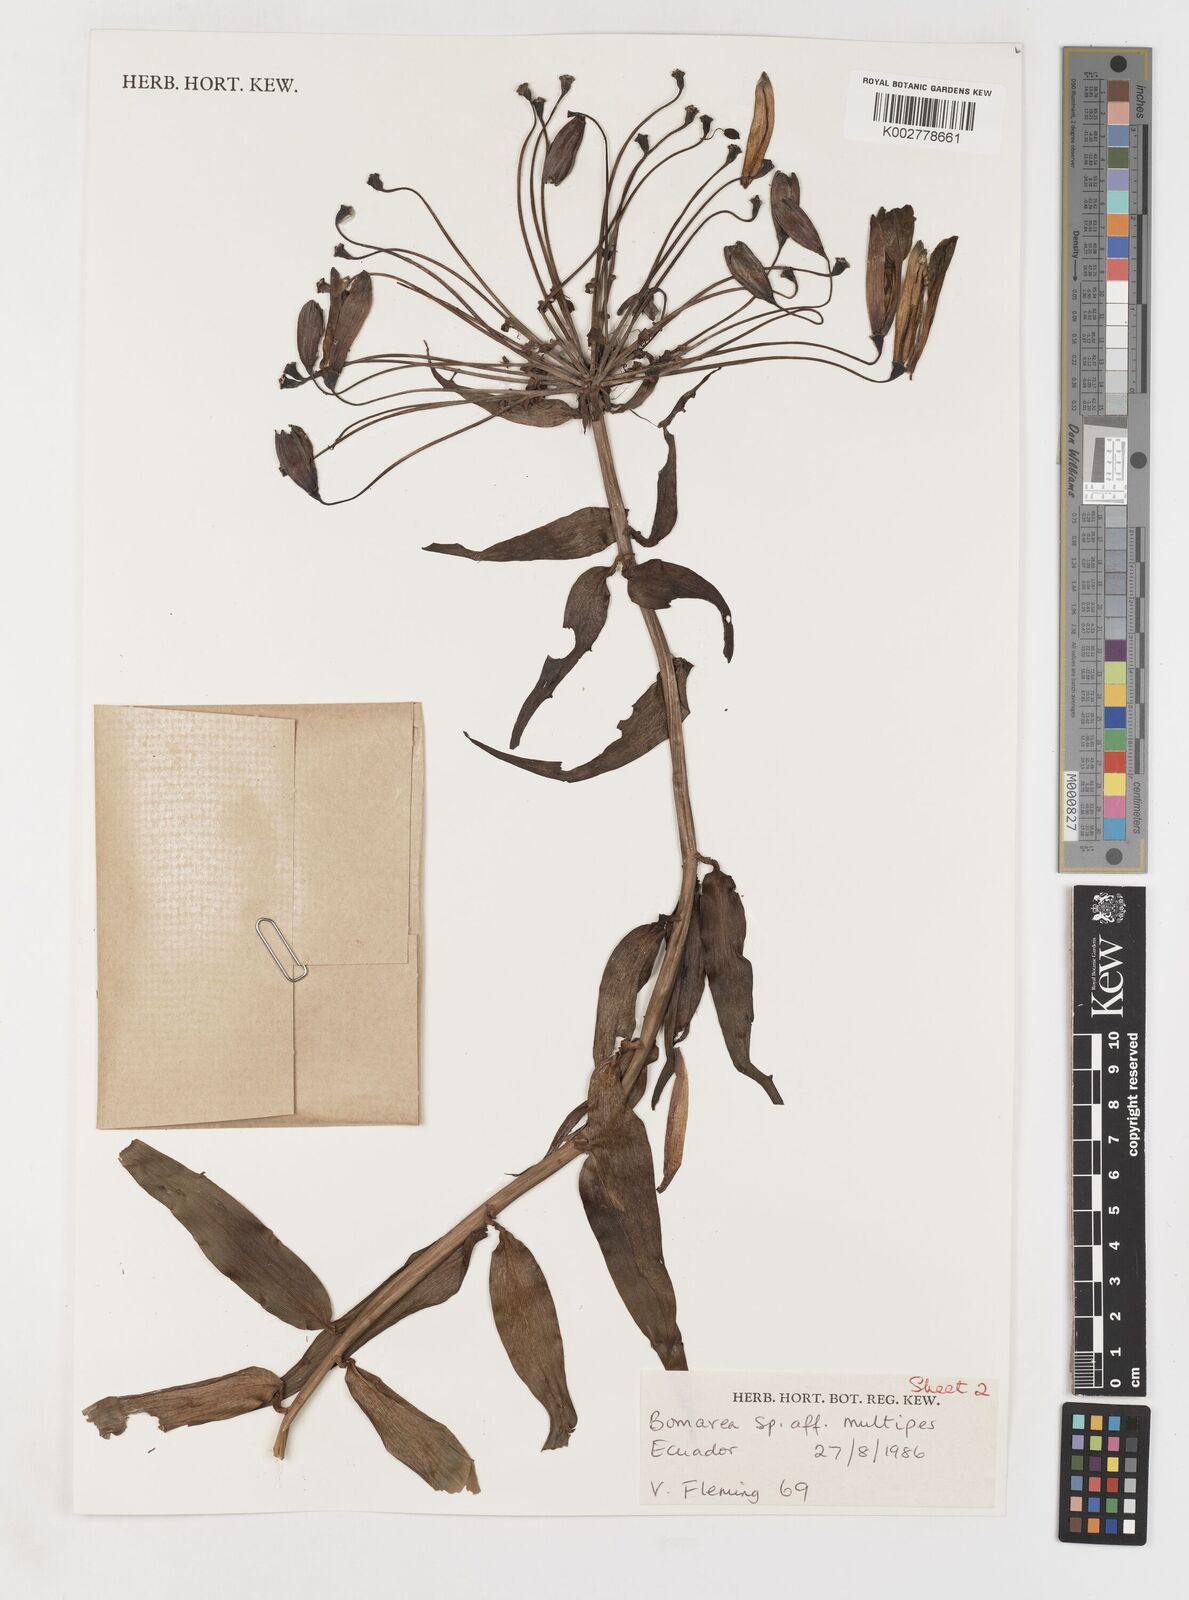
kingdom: Plantae
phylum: Tracheophyta
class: Liliopsida
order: Liliales
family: Alstroemeriaceae
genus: Bomarea
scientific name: Bomarea multipes
